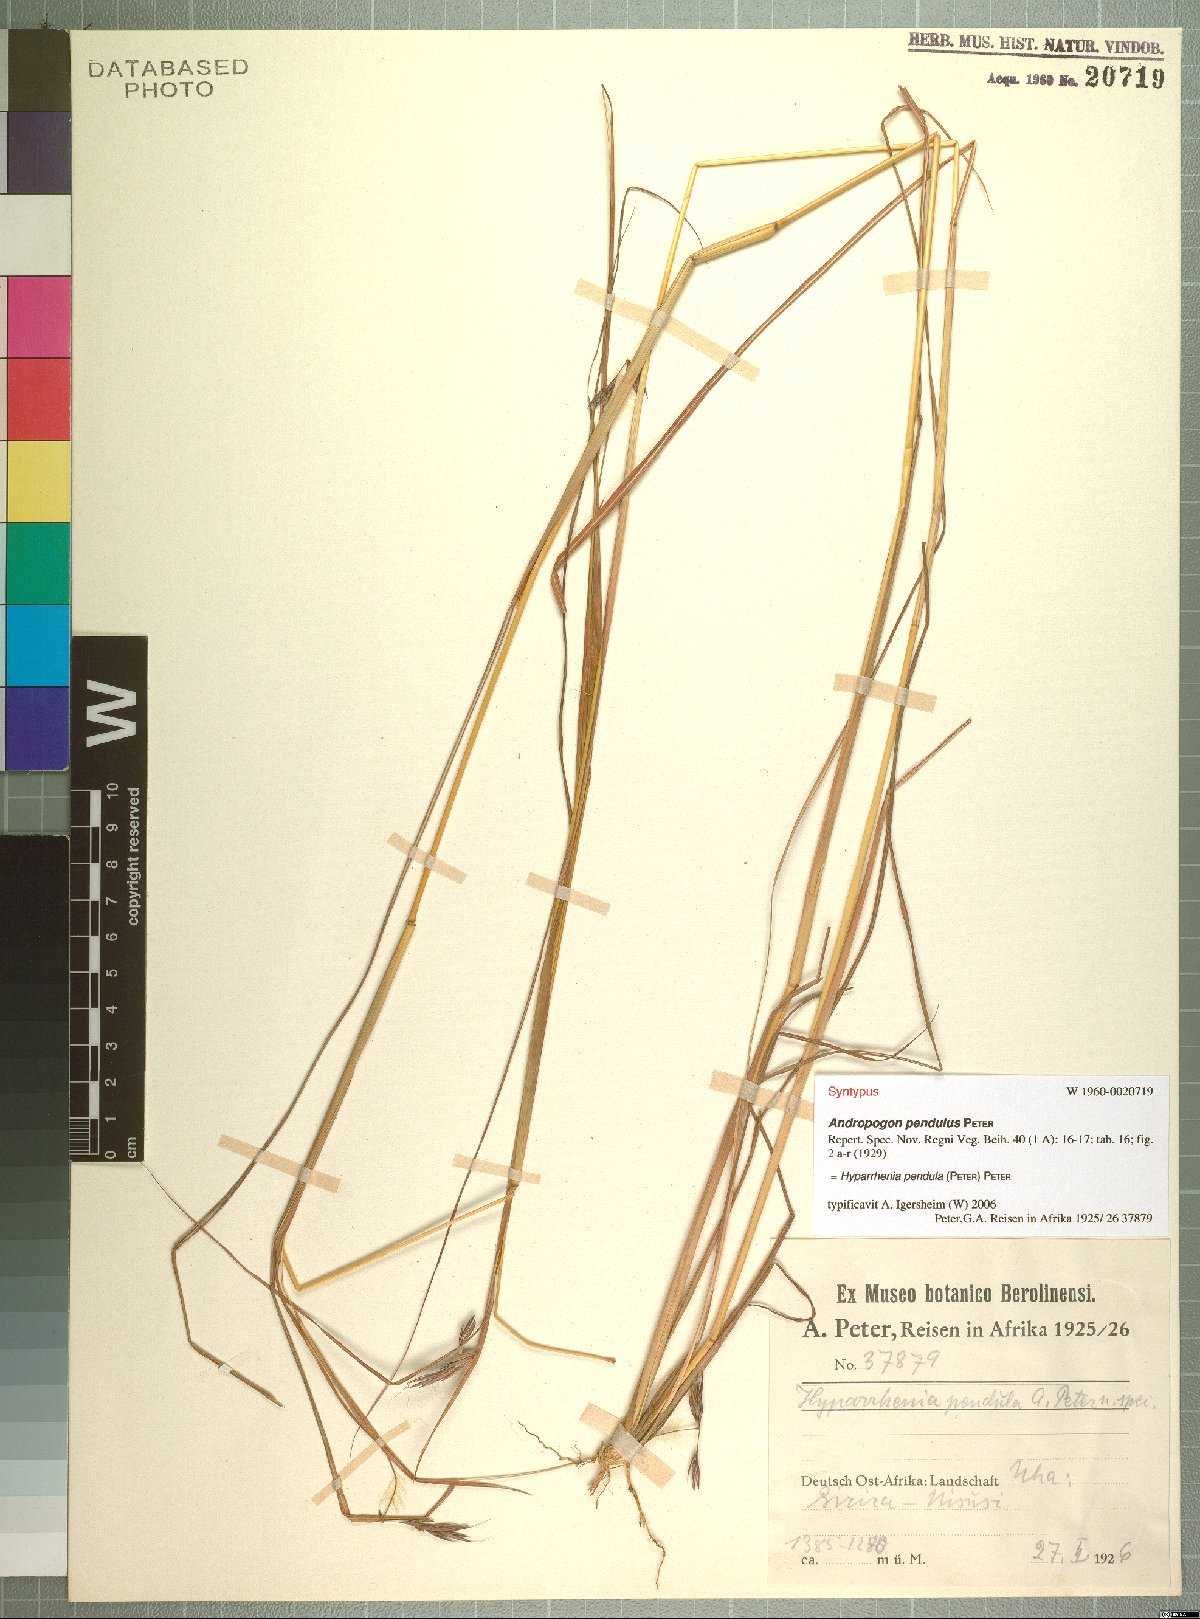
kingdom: Plantae
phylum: Tracheophyta
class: Liliopsida
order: Poales
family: Poaceae
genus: Hyparrhenia
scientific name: Hyparrhenia rufa
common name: Jaraguagrass
